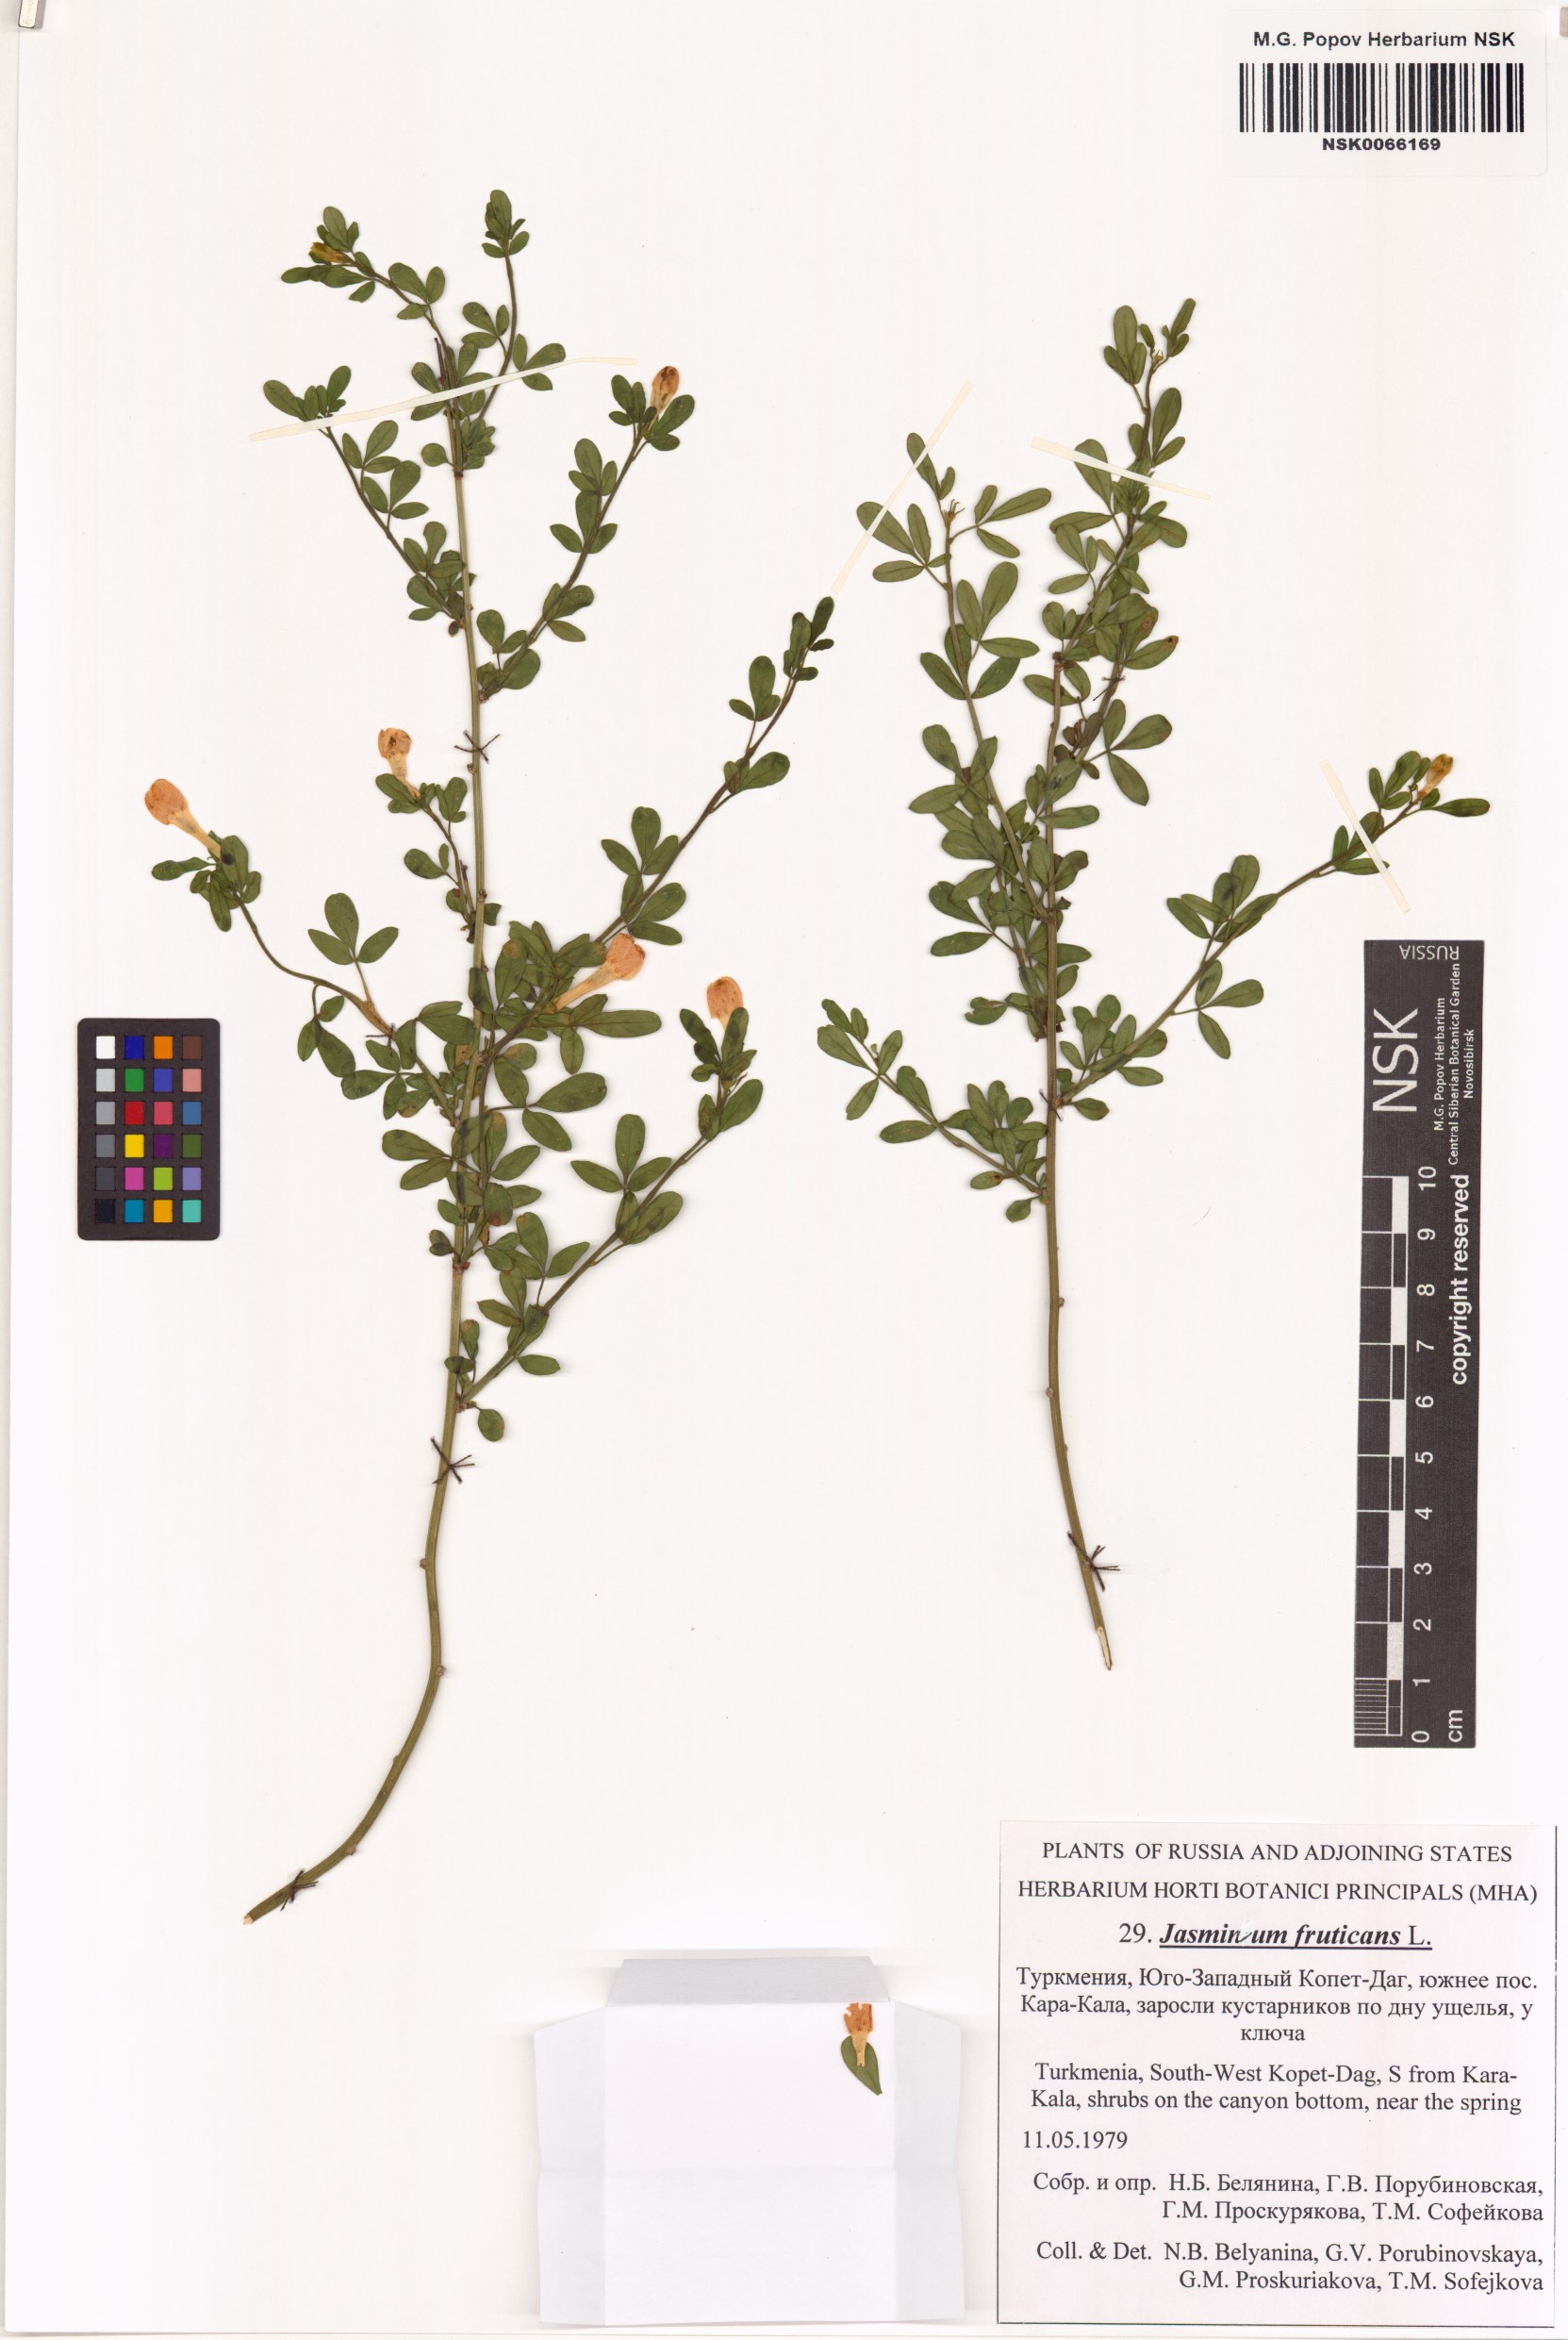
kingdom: Plantae
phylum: Tracheophyta
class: Magnoliopsida
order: Lamiales
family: Oleaceae
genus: Chrysojasminum
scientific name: Chrysojasminum fruticans
